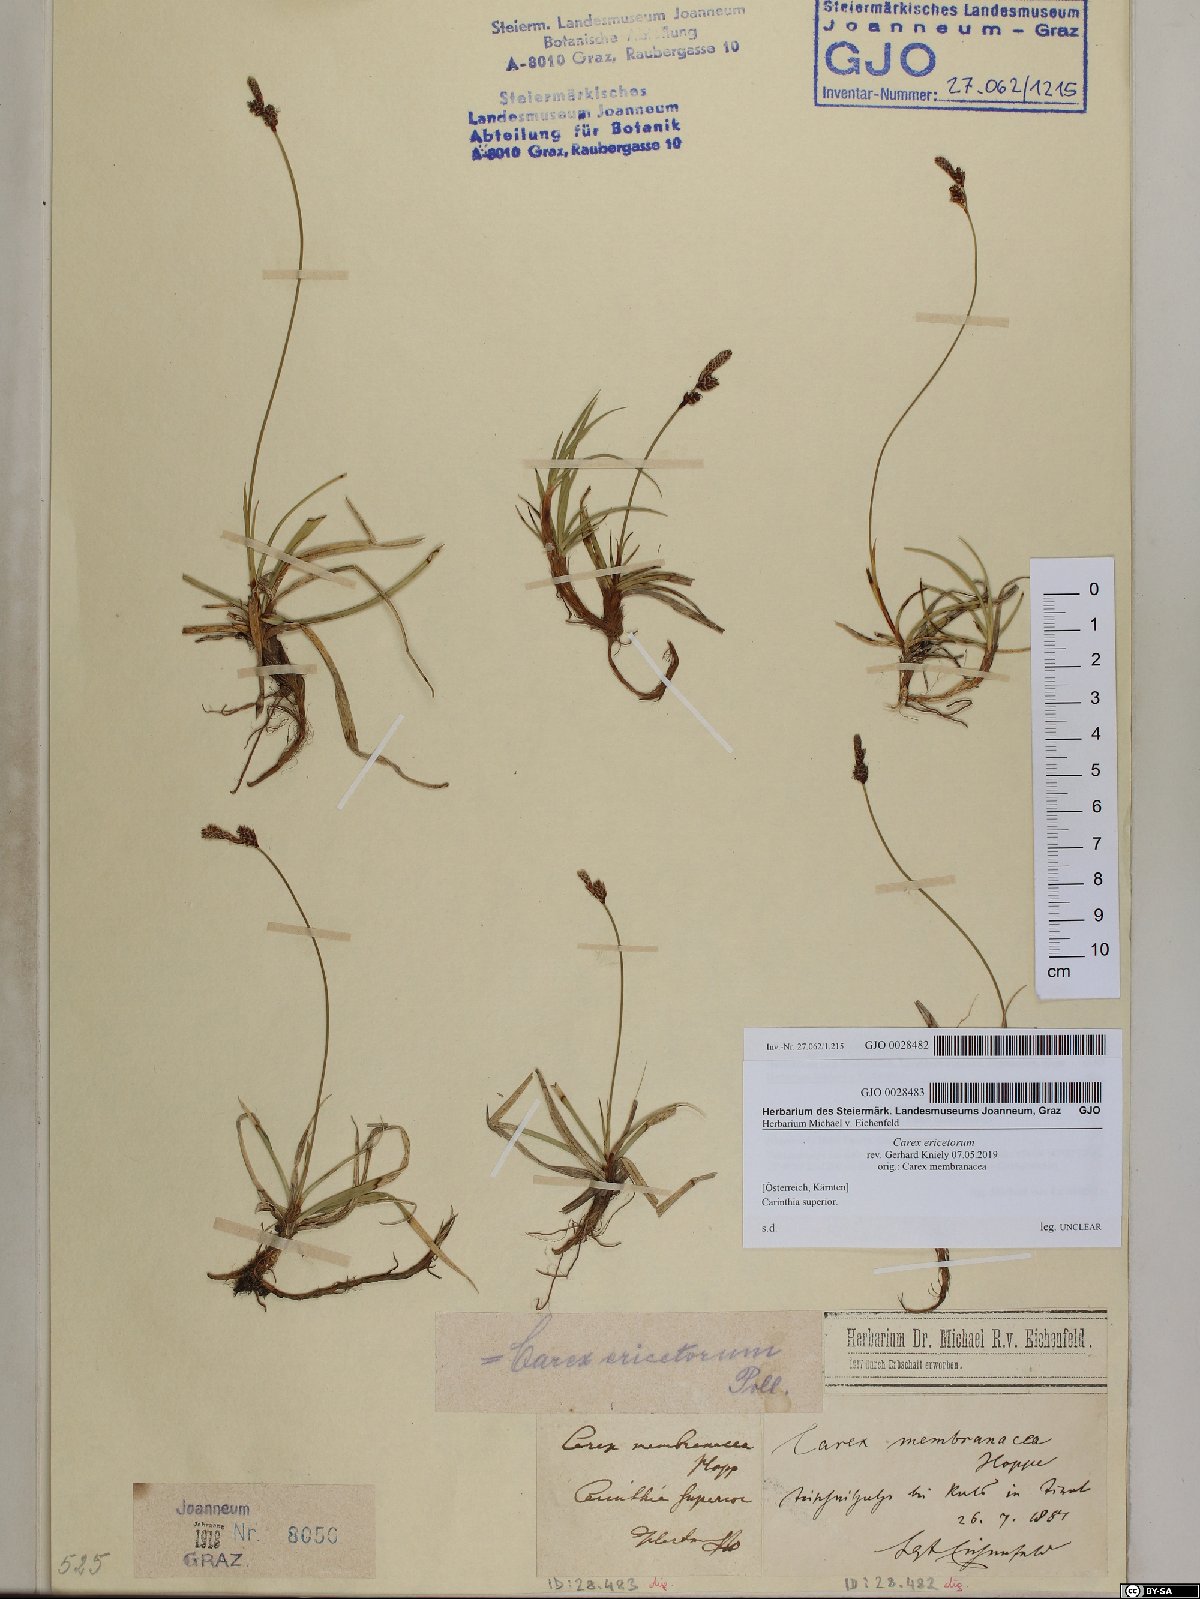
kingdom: Plantae
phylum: Tracheophyta
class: Liliopsida
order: Poales
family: Cyperaceae
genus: Carex
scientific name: Carex ericetorum
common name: Rare spring-sedge
